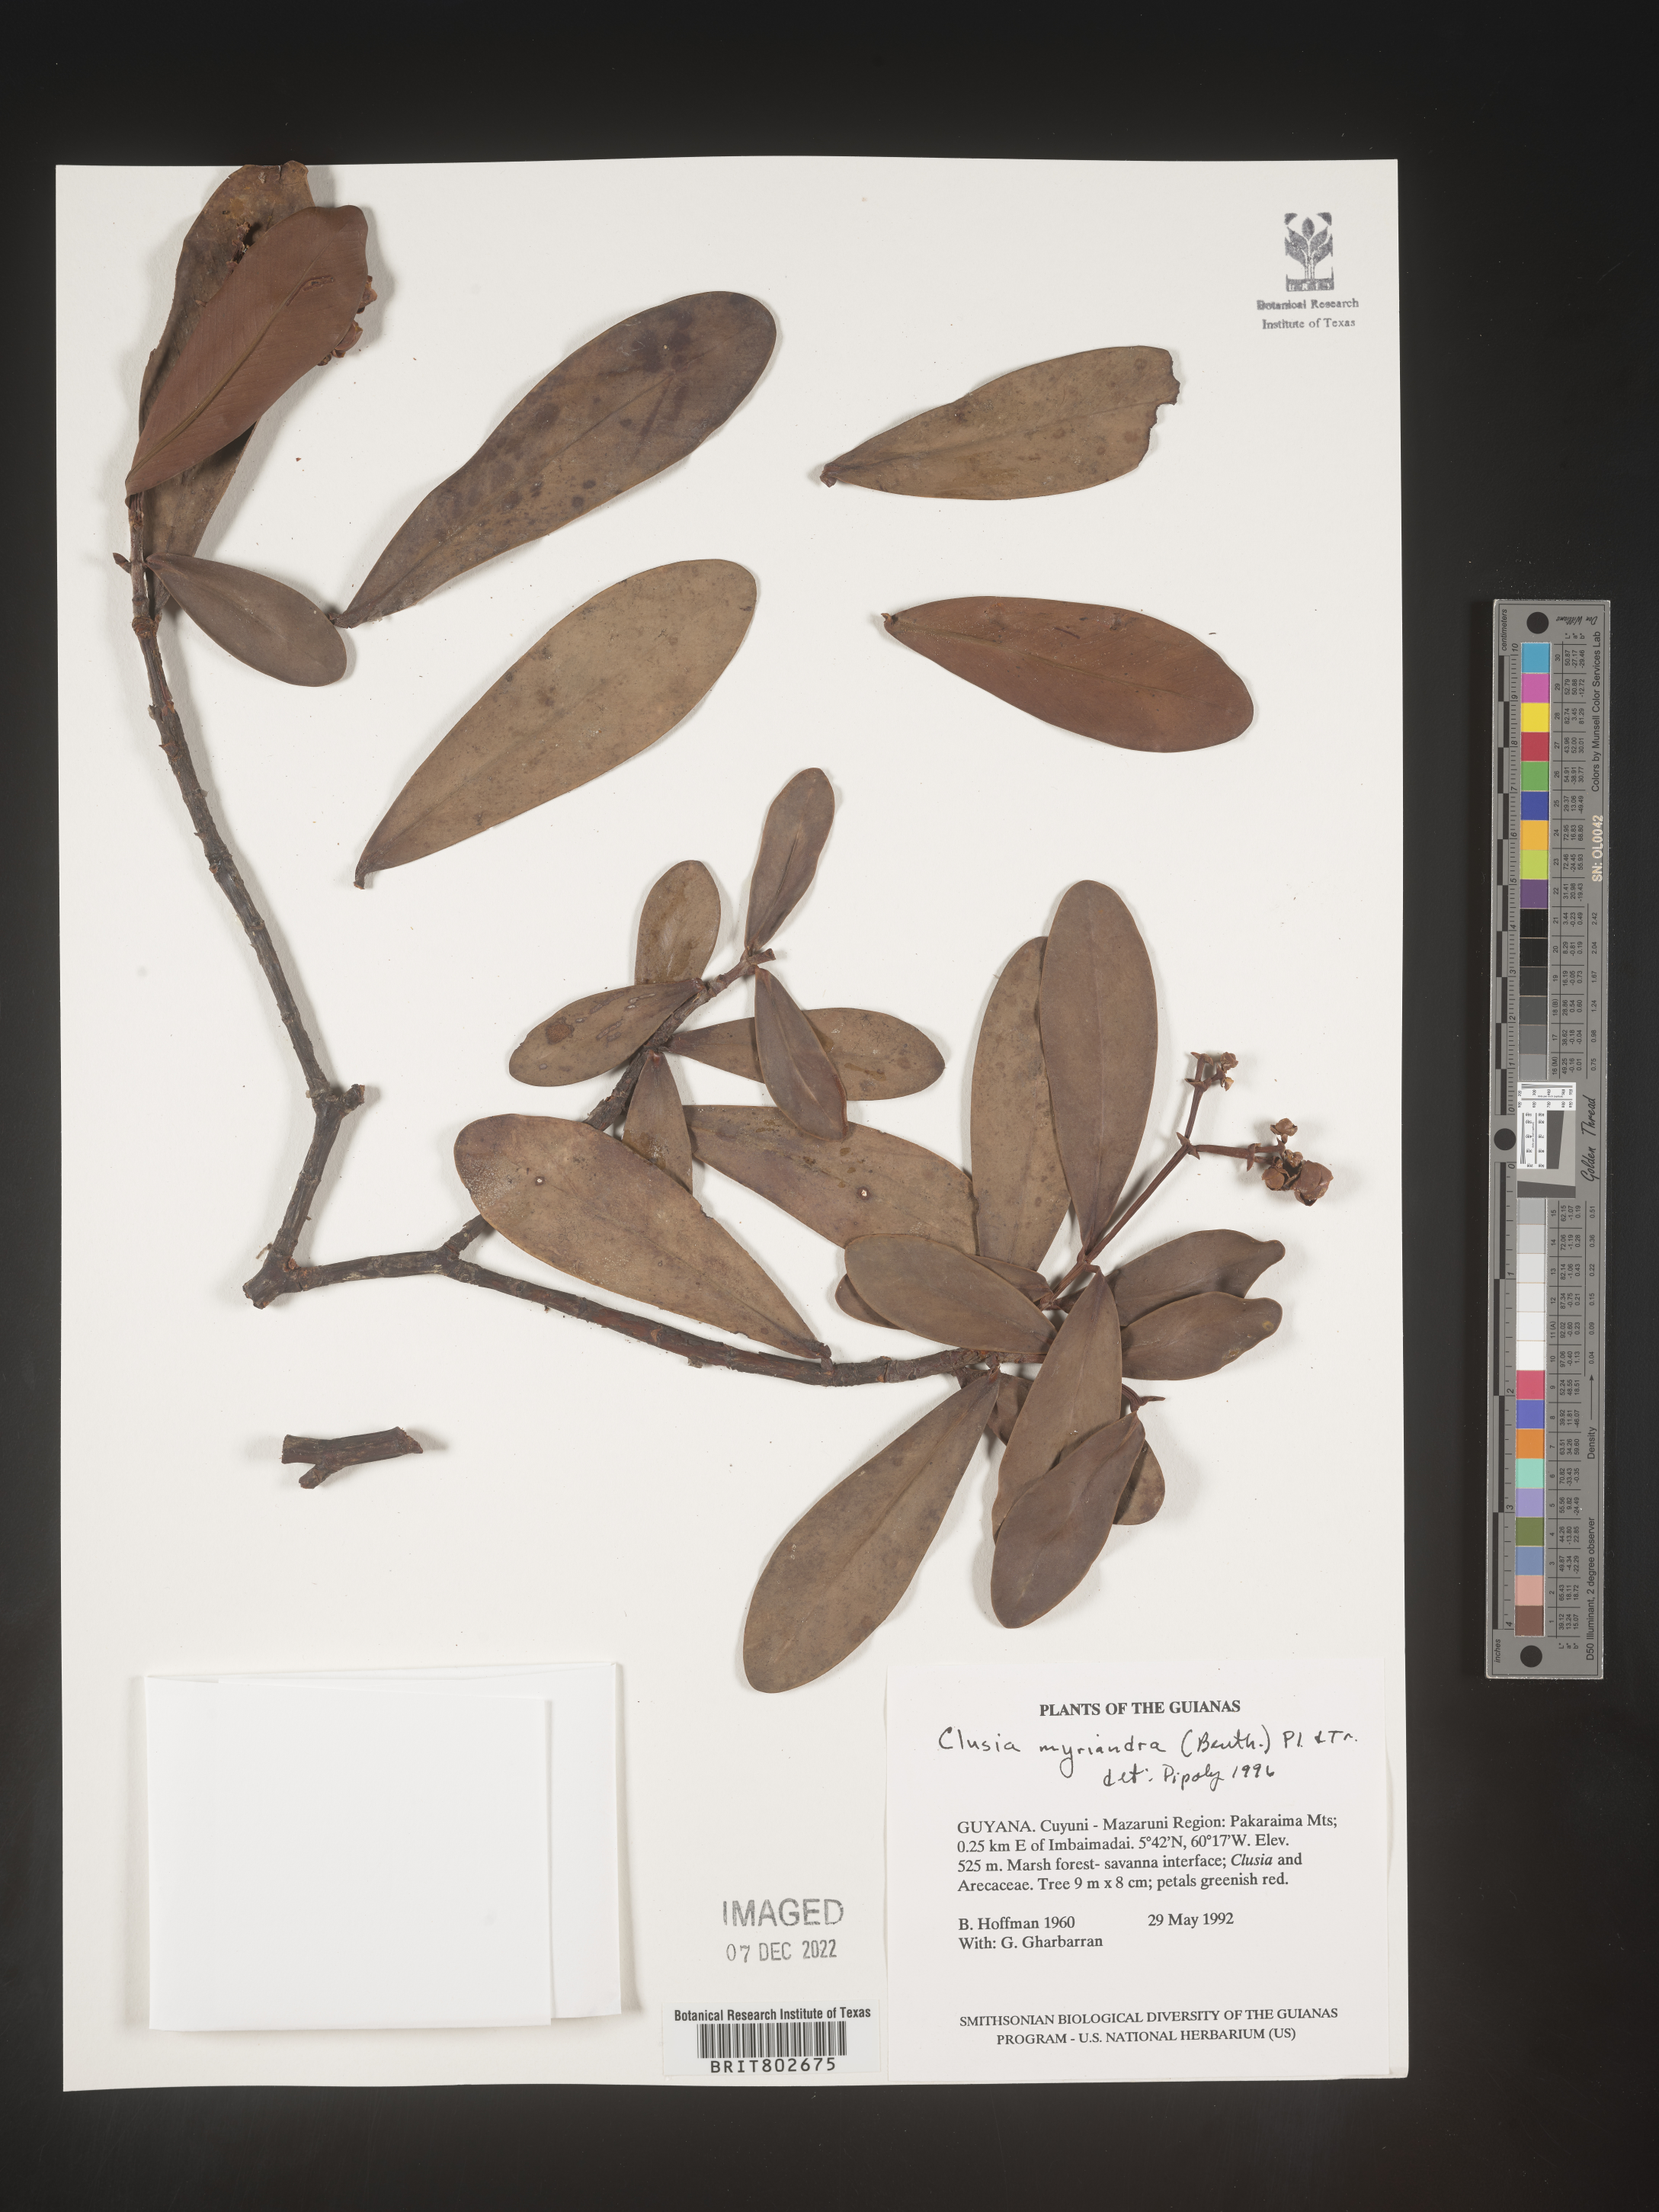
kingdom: Plantae
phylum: Tracheophyta
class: Magnoliopsida
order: Malpighiales
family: Clusiaceae
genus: Clusia
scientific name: Clusia myriandra
